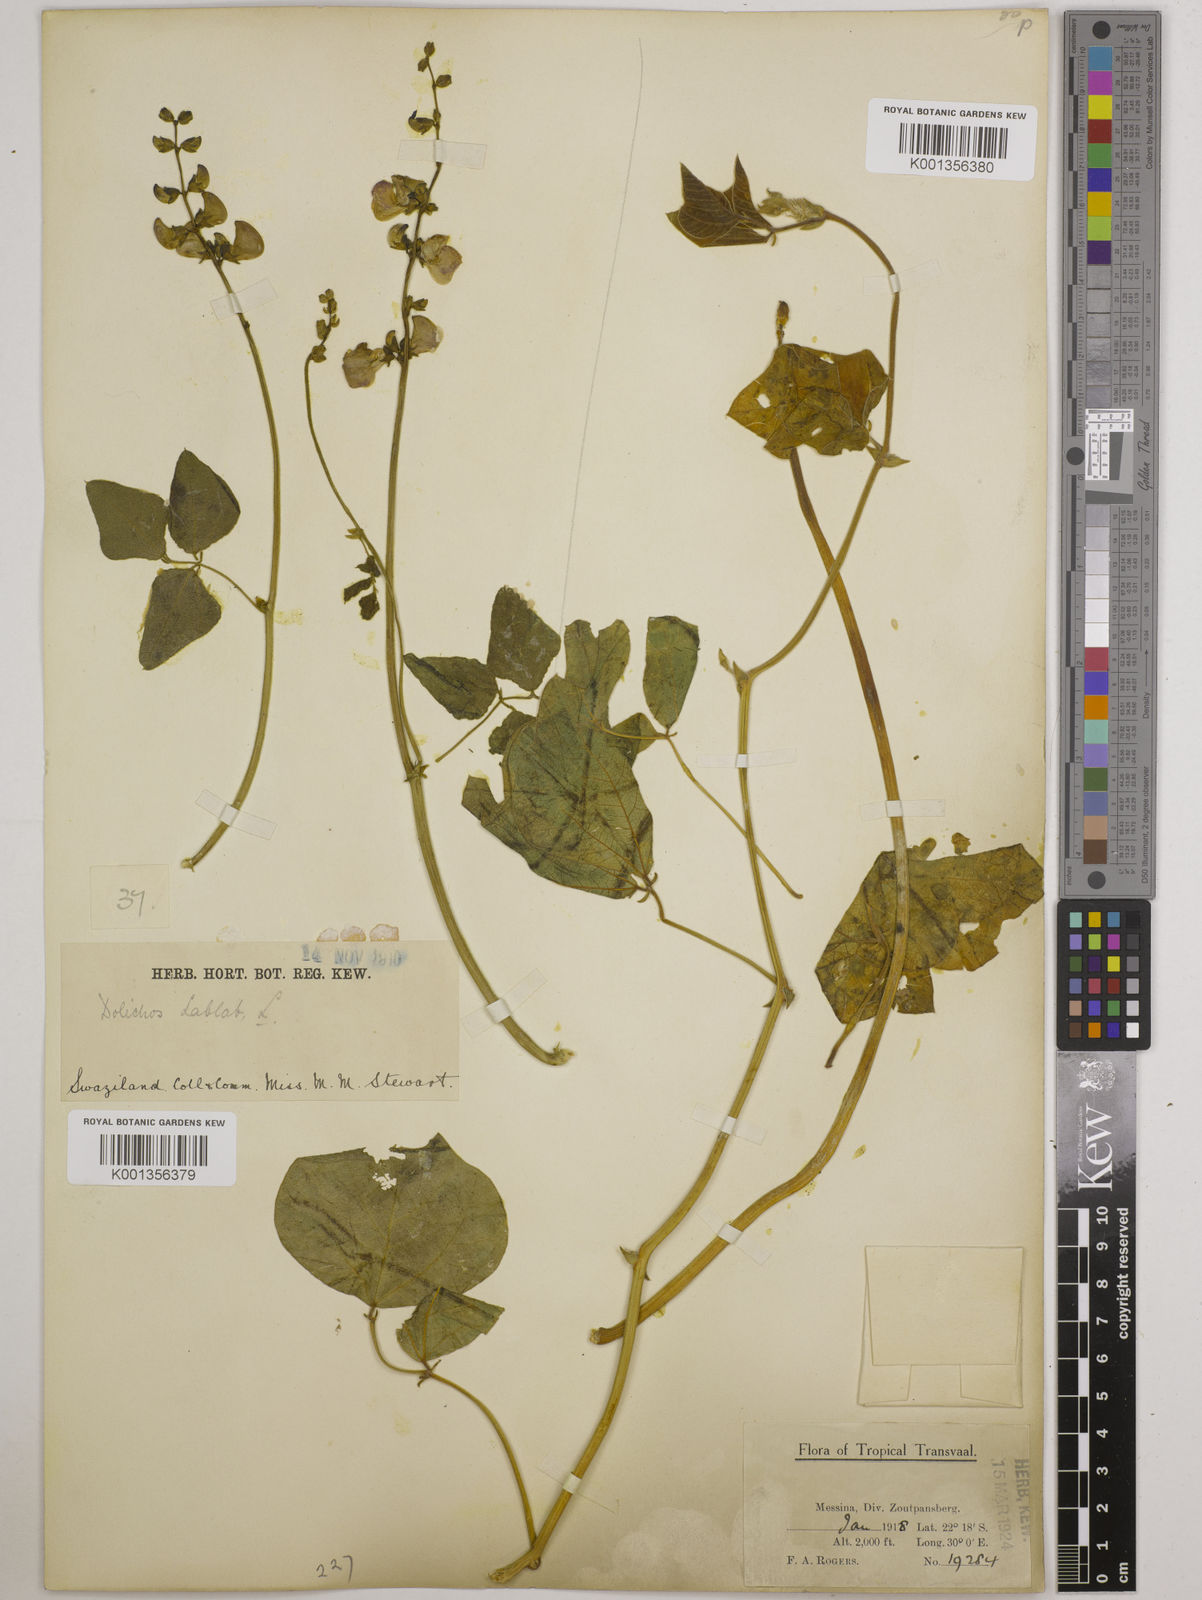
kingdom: Plantae
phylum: Tracheophyta
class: Magnoliopsida
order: Fabales
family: Fabaceae
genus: Lablab
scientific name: Lablab purpureus
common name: Lablab-bean
